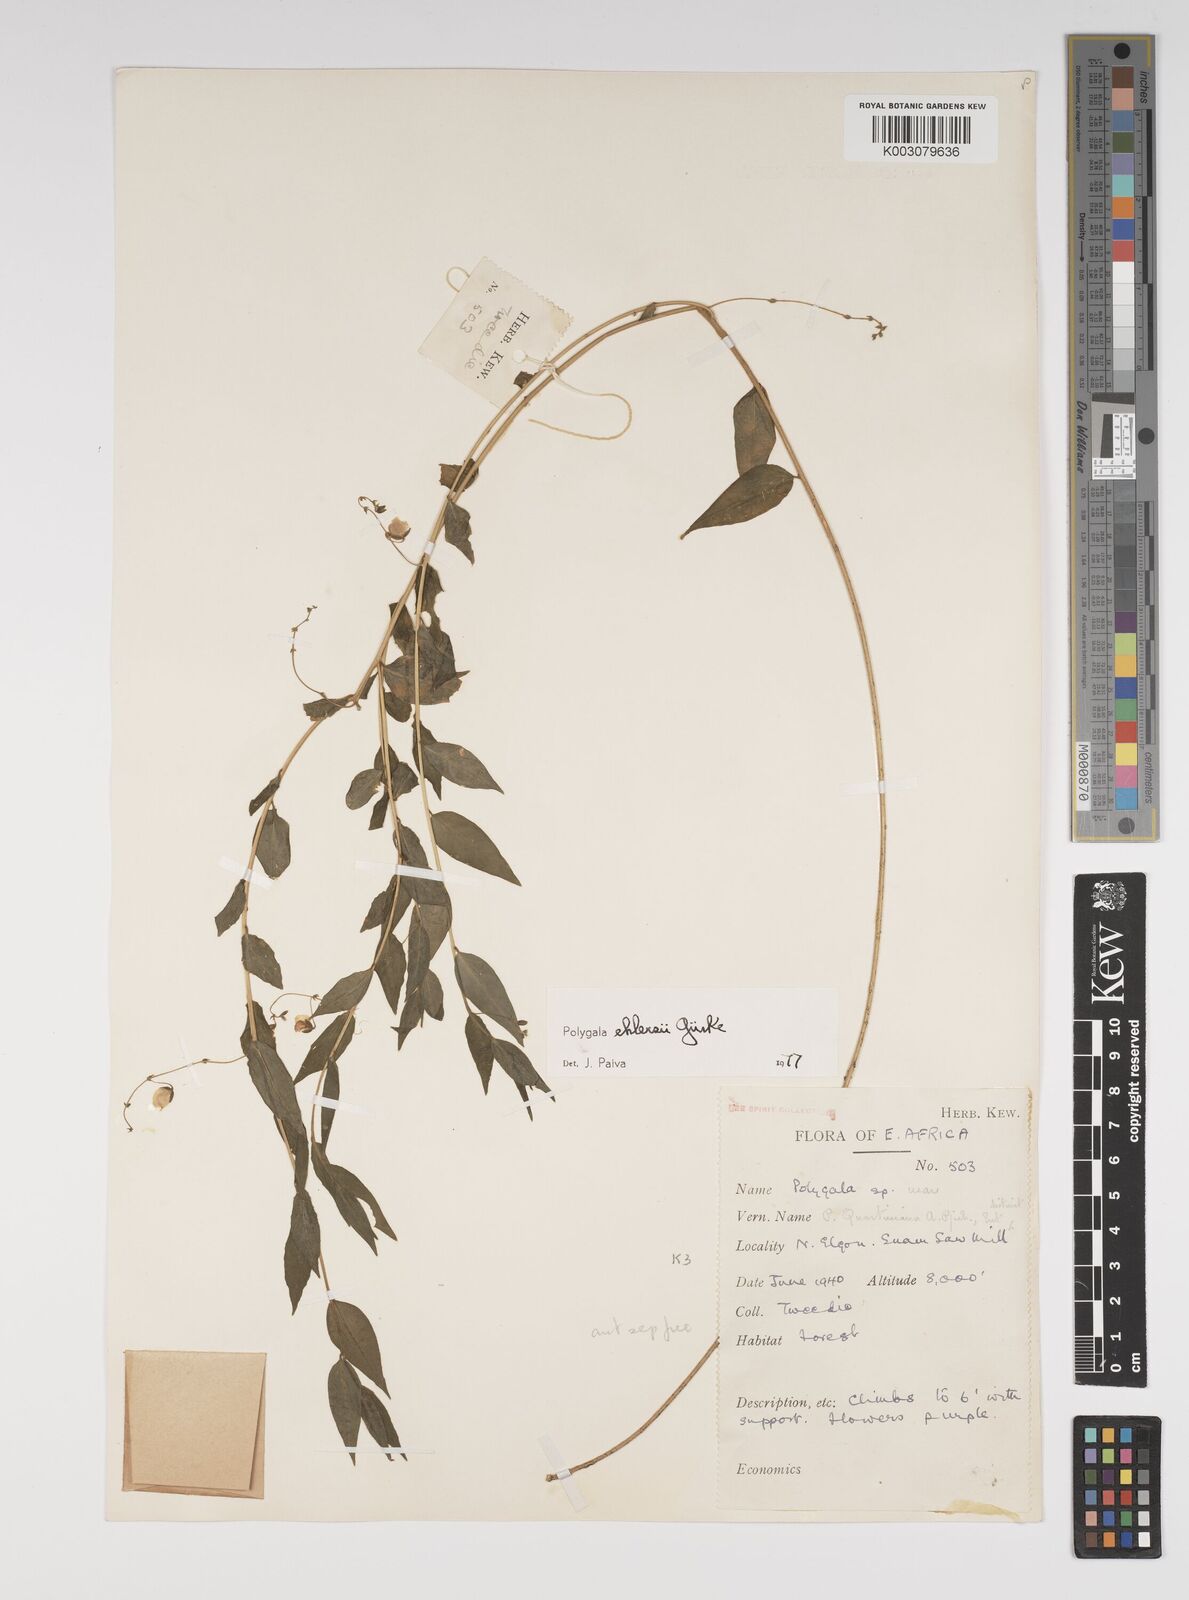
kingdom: Plantae
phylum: Tracheophyta
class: Magnoliopsida
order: Fabales
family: Polygalaceae
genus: Polygala
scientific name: Polygala ehlersii
